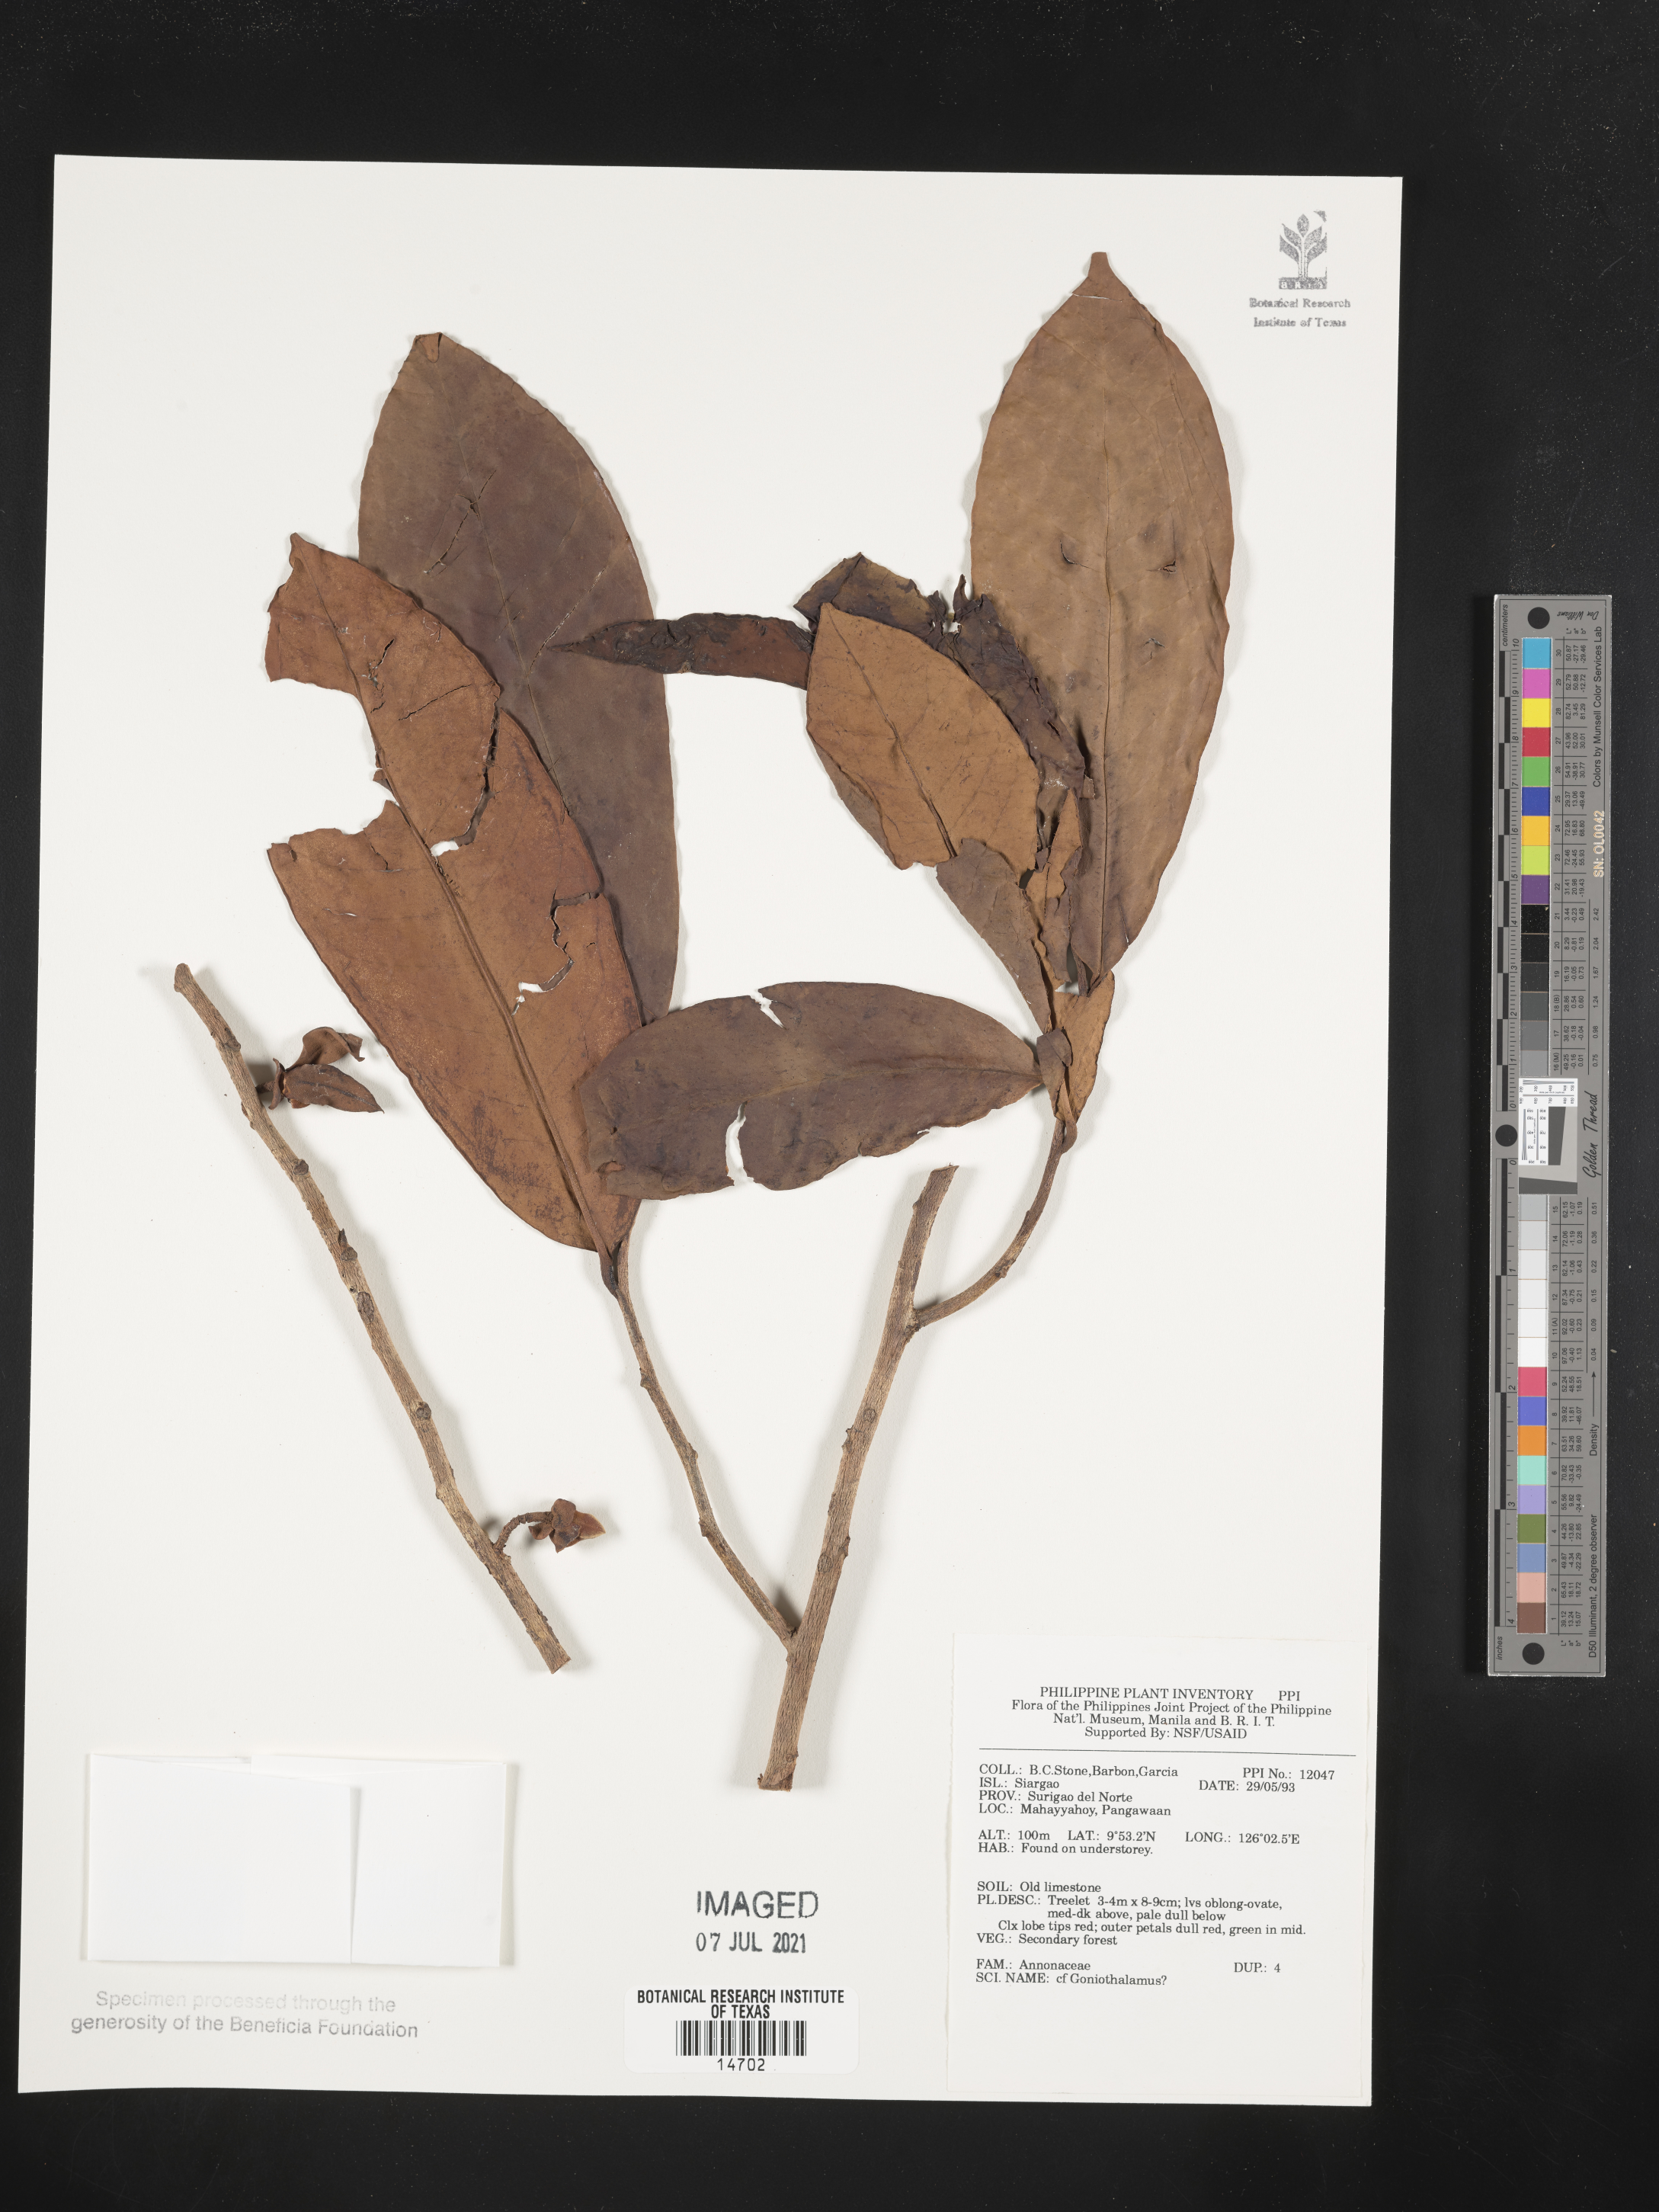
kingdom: Plantae
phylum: Tracheophyta
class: Magnoliopsida
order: Magnoliales
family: Annonaceae
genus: Goniothalamus
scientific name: Goniothalamus
